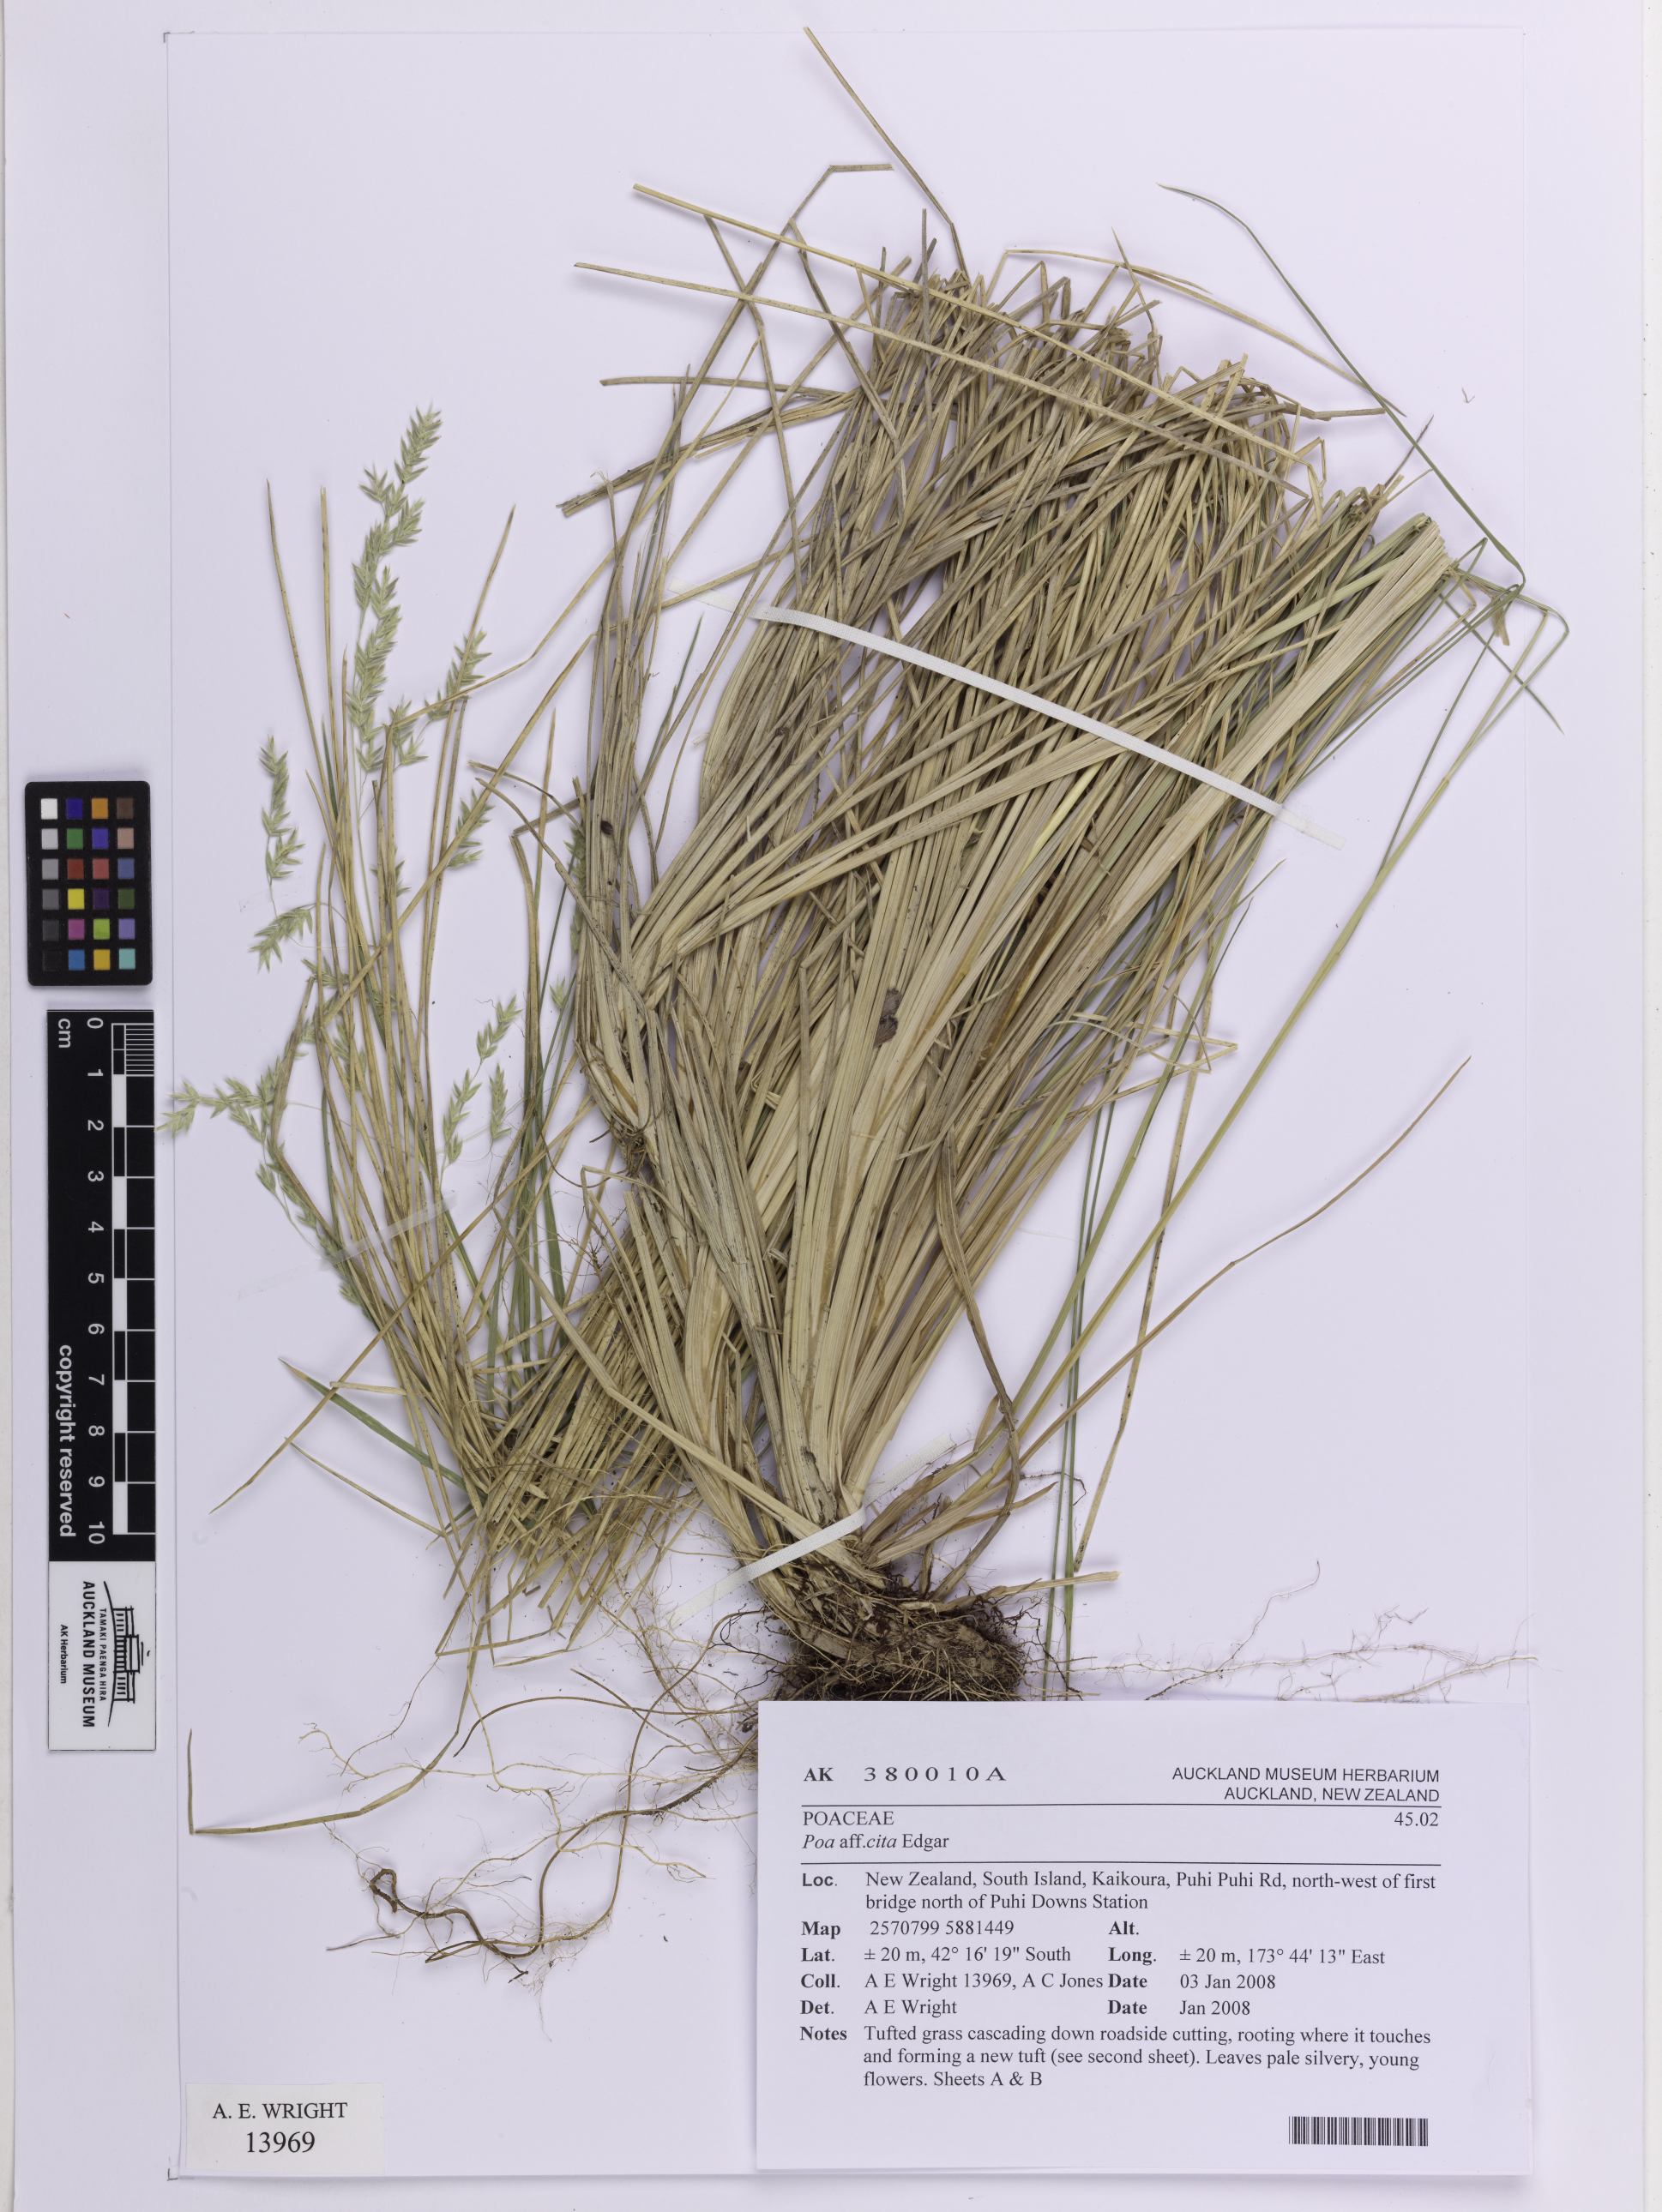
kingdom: Plantae
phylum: Tracheophyta
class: Liliopsida
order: Poales
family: Poaceae
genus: Poa
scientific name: Poa cita
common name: Silver tussock
